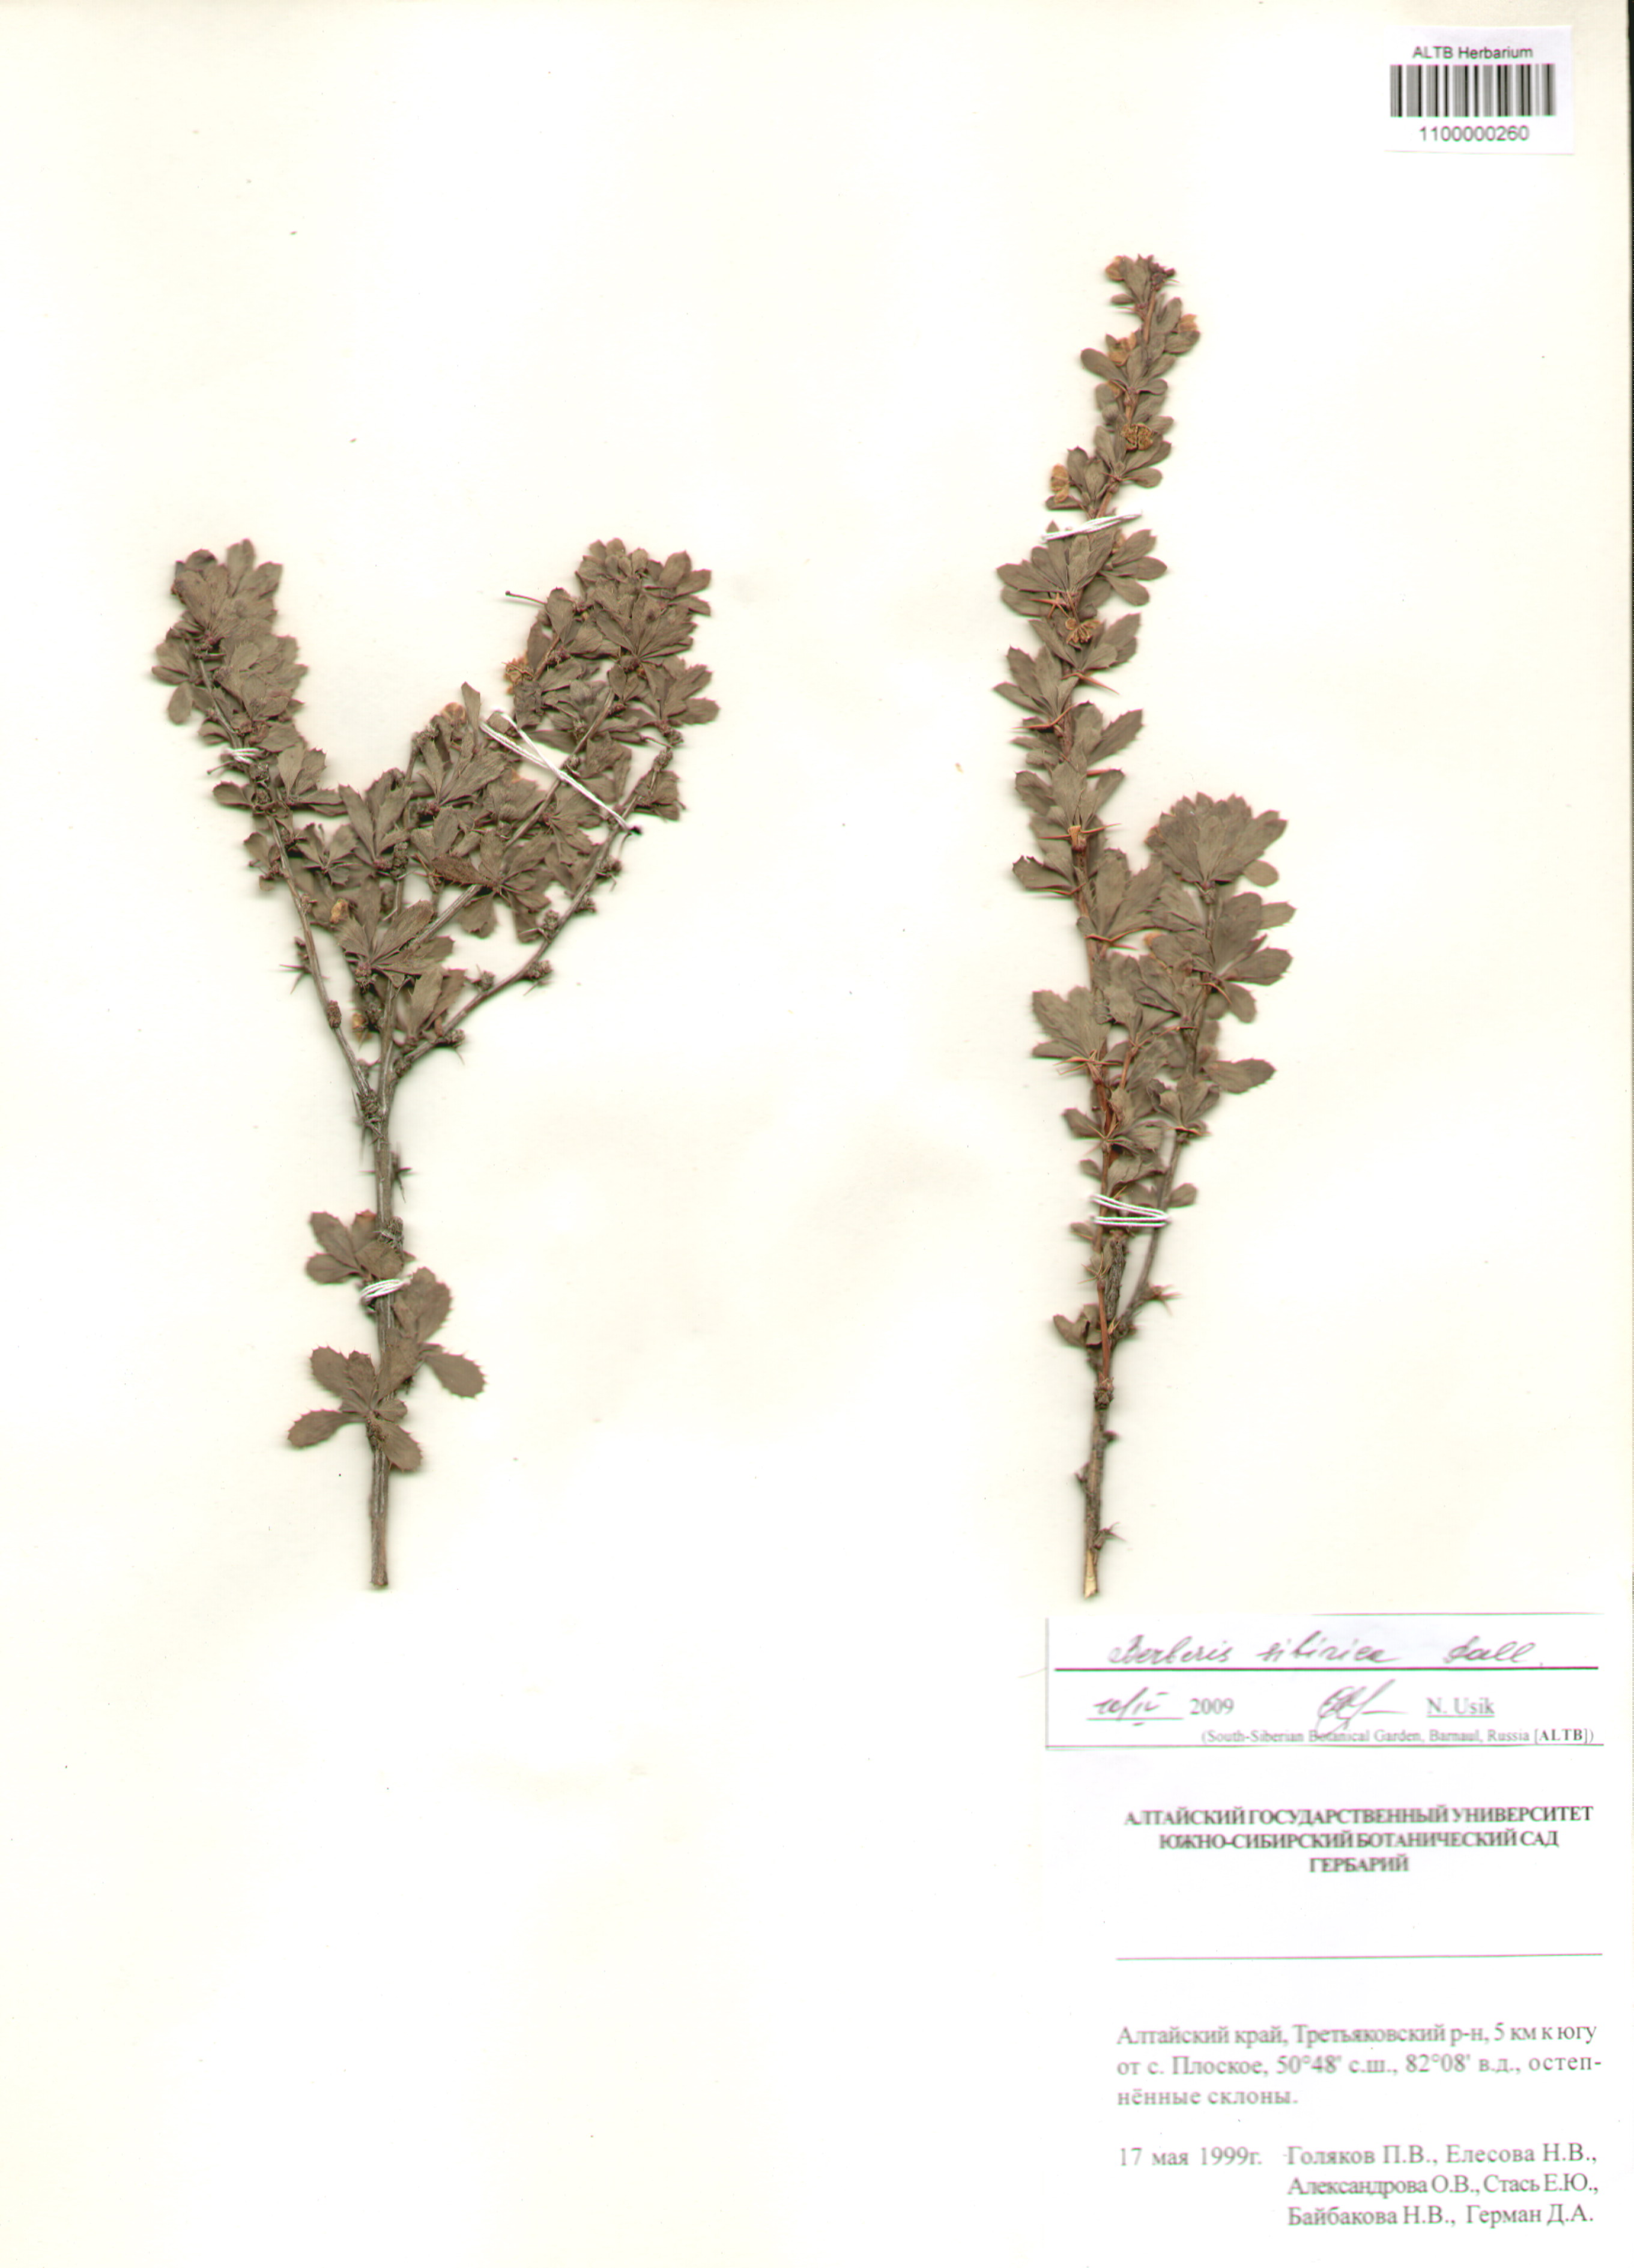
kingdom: Plantae
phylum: Tracheophyta
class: Magnoliopsida
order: Ranunculales
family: Berberidaceae
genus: Berberis
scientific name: Berberis sibirica
